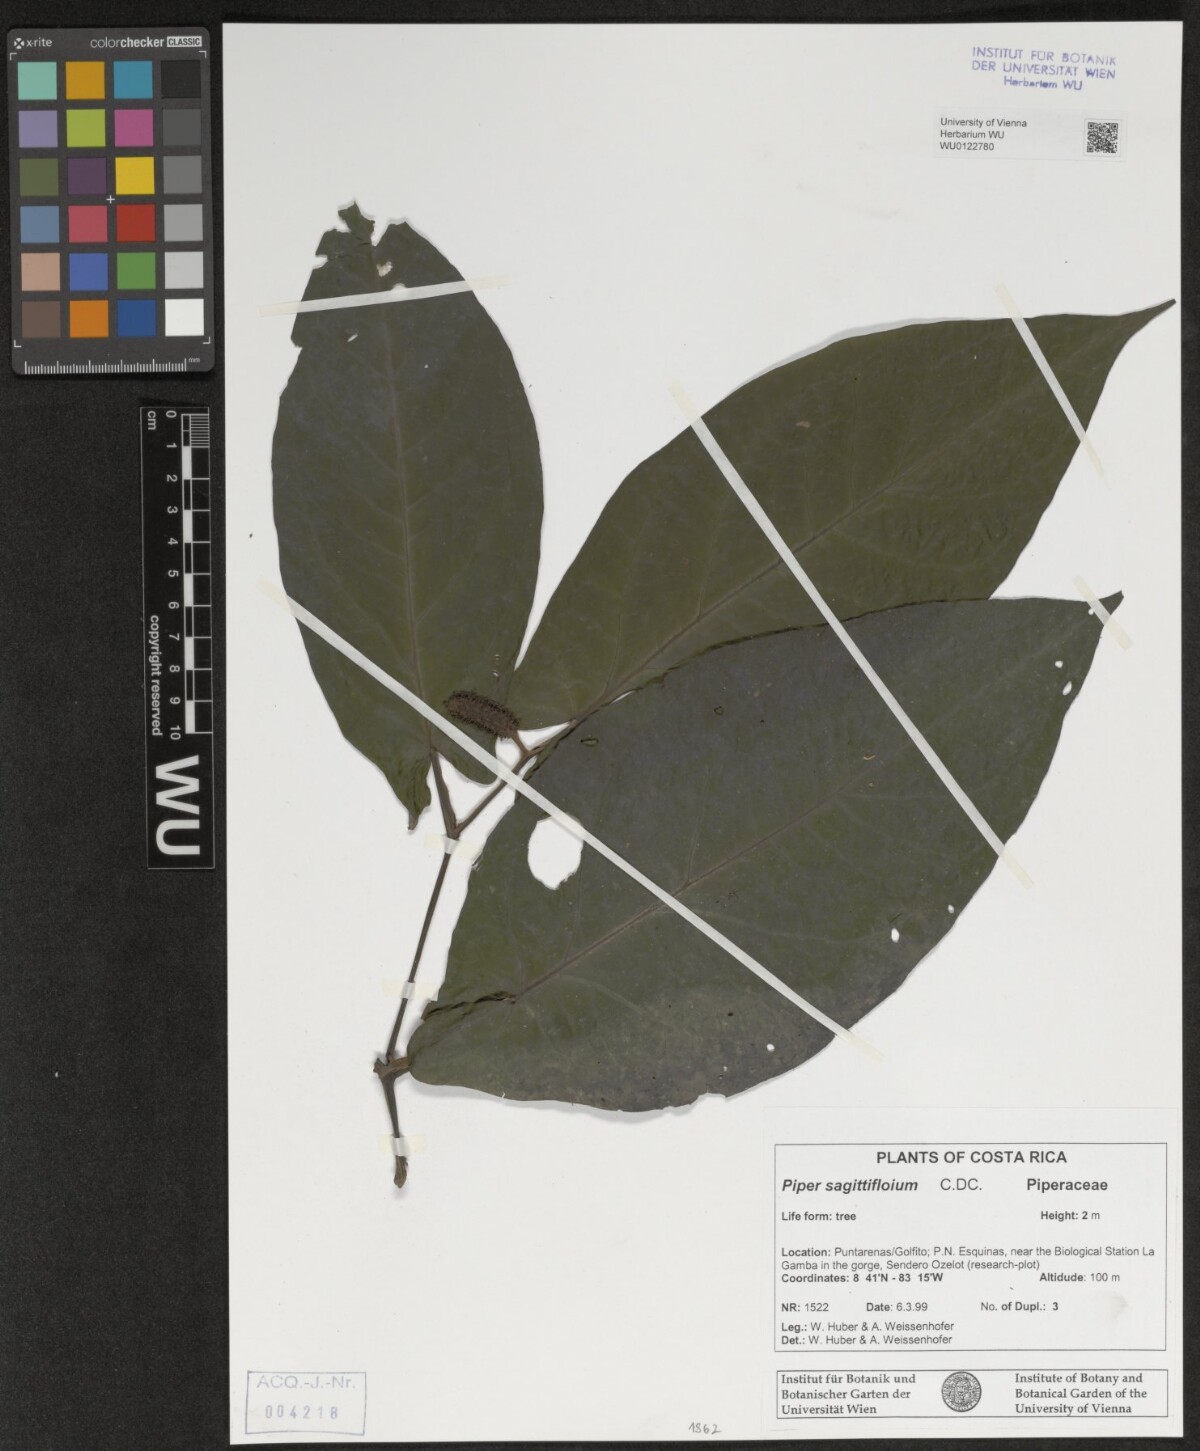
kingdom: Plantae
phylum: Tracheophyta
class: Magnoliopsida
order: Piperales
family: Piperaceae
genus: Piper
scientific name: Piper sagittifolium
